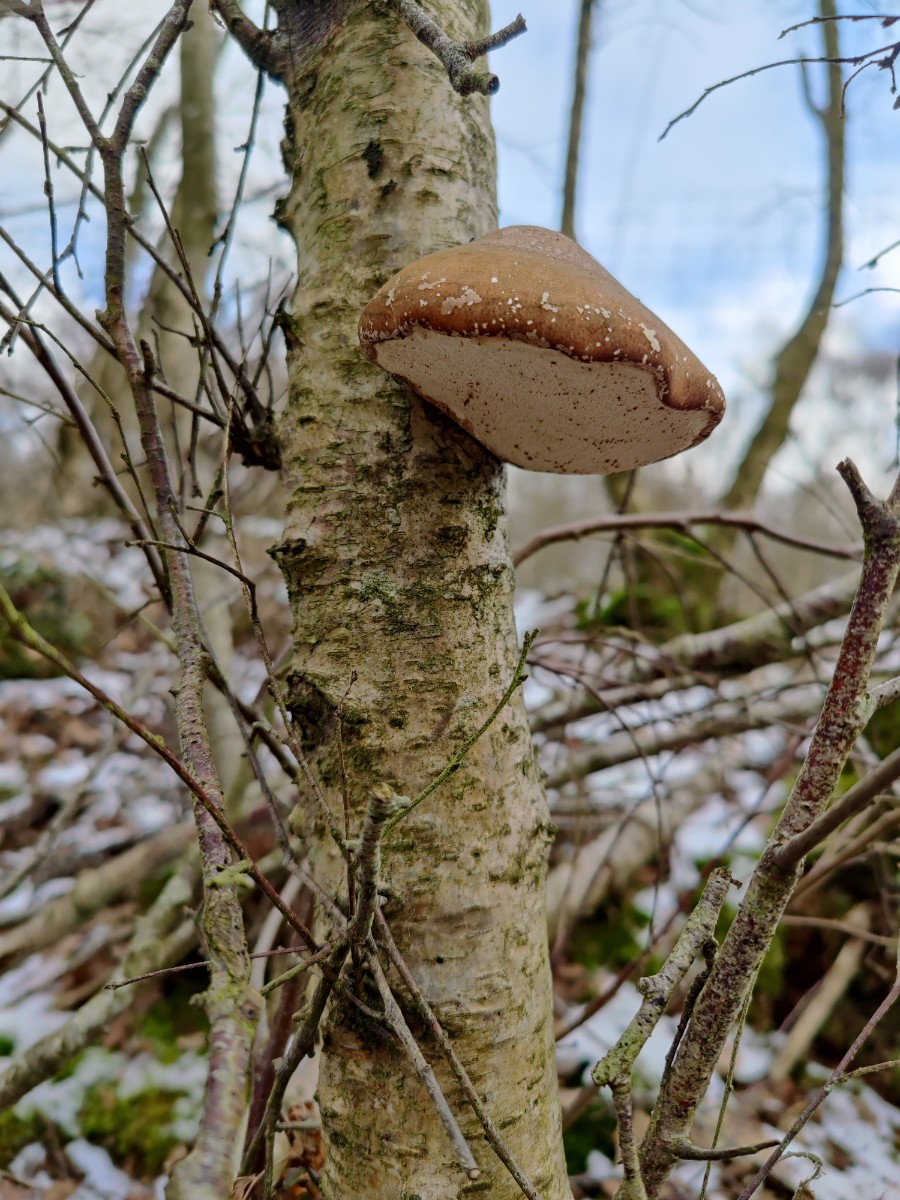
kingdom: Fungi
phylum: Basidiomycota
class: Agaricomycetes
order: Polyporales
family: Fomitopsidaceae
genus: Fomitopsis
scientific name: Fomitopsis betulina
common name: birkeporesvamp
